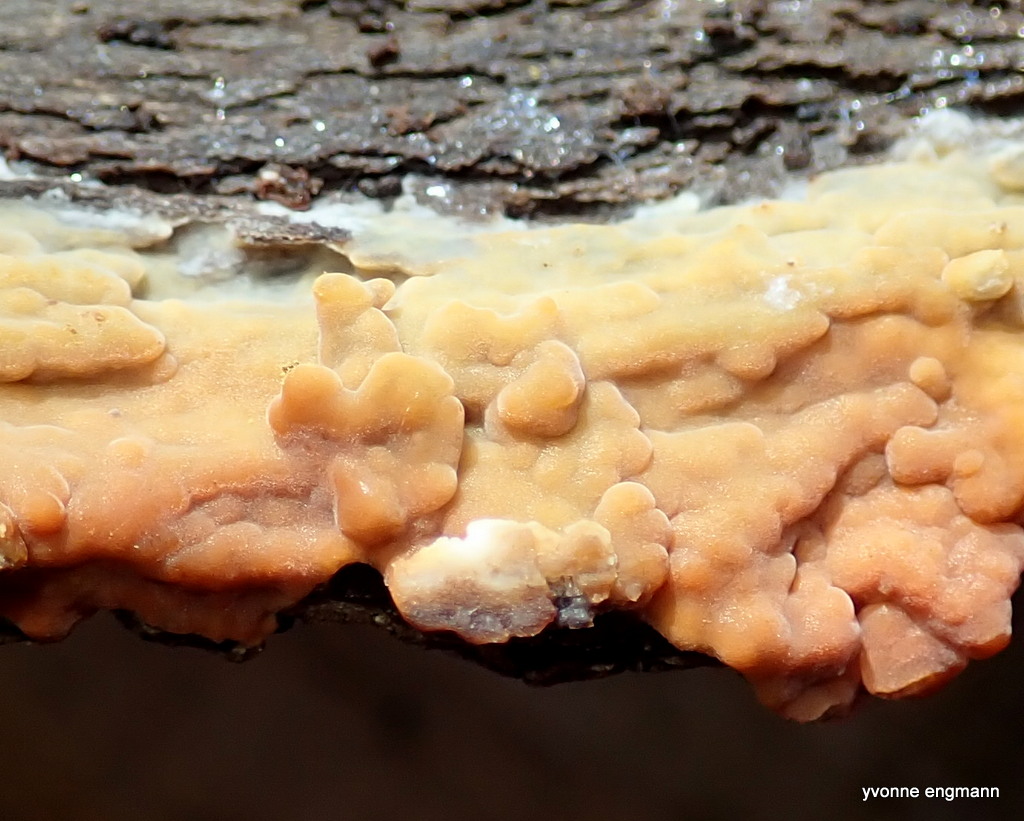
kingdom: Fungi
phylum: Basidiomycota
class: Agaricomycetes
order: Corticiales
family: Corticiaceae
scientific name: Corticiaceae
